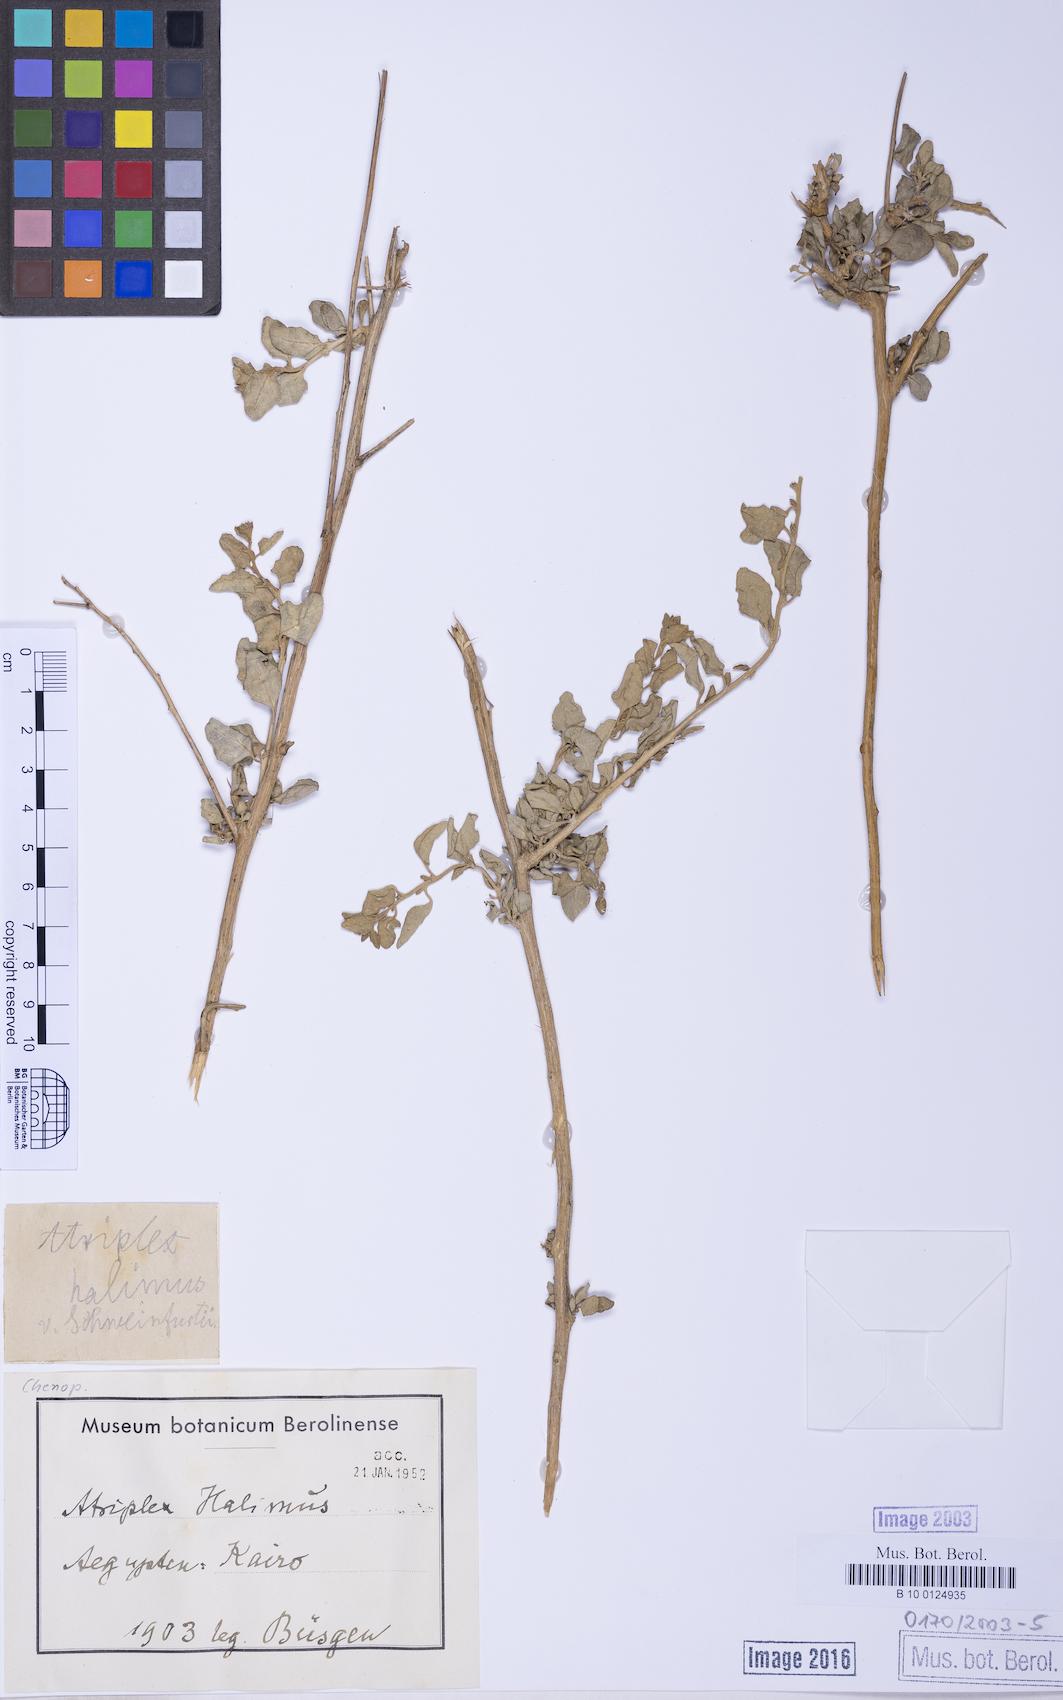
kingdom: Plantae
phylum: Tracheophyta
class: Magnoliopsida
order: Caryophyllales
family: Amaranthaceae
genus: Atriplex
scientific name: Atriplex halimus
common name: Shrubby orache
